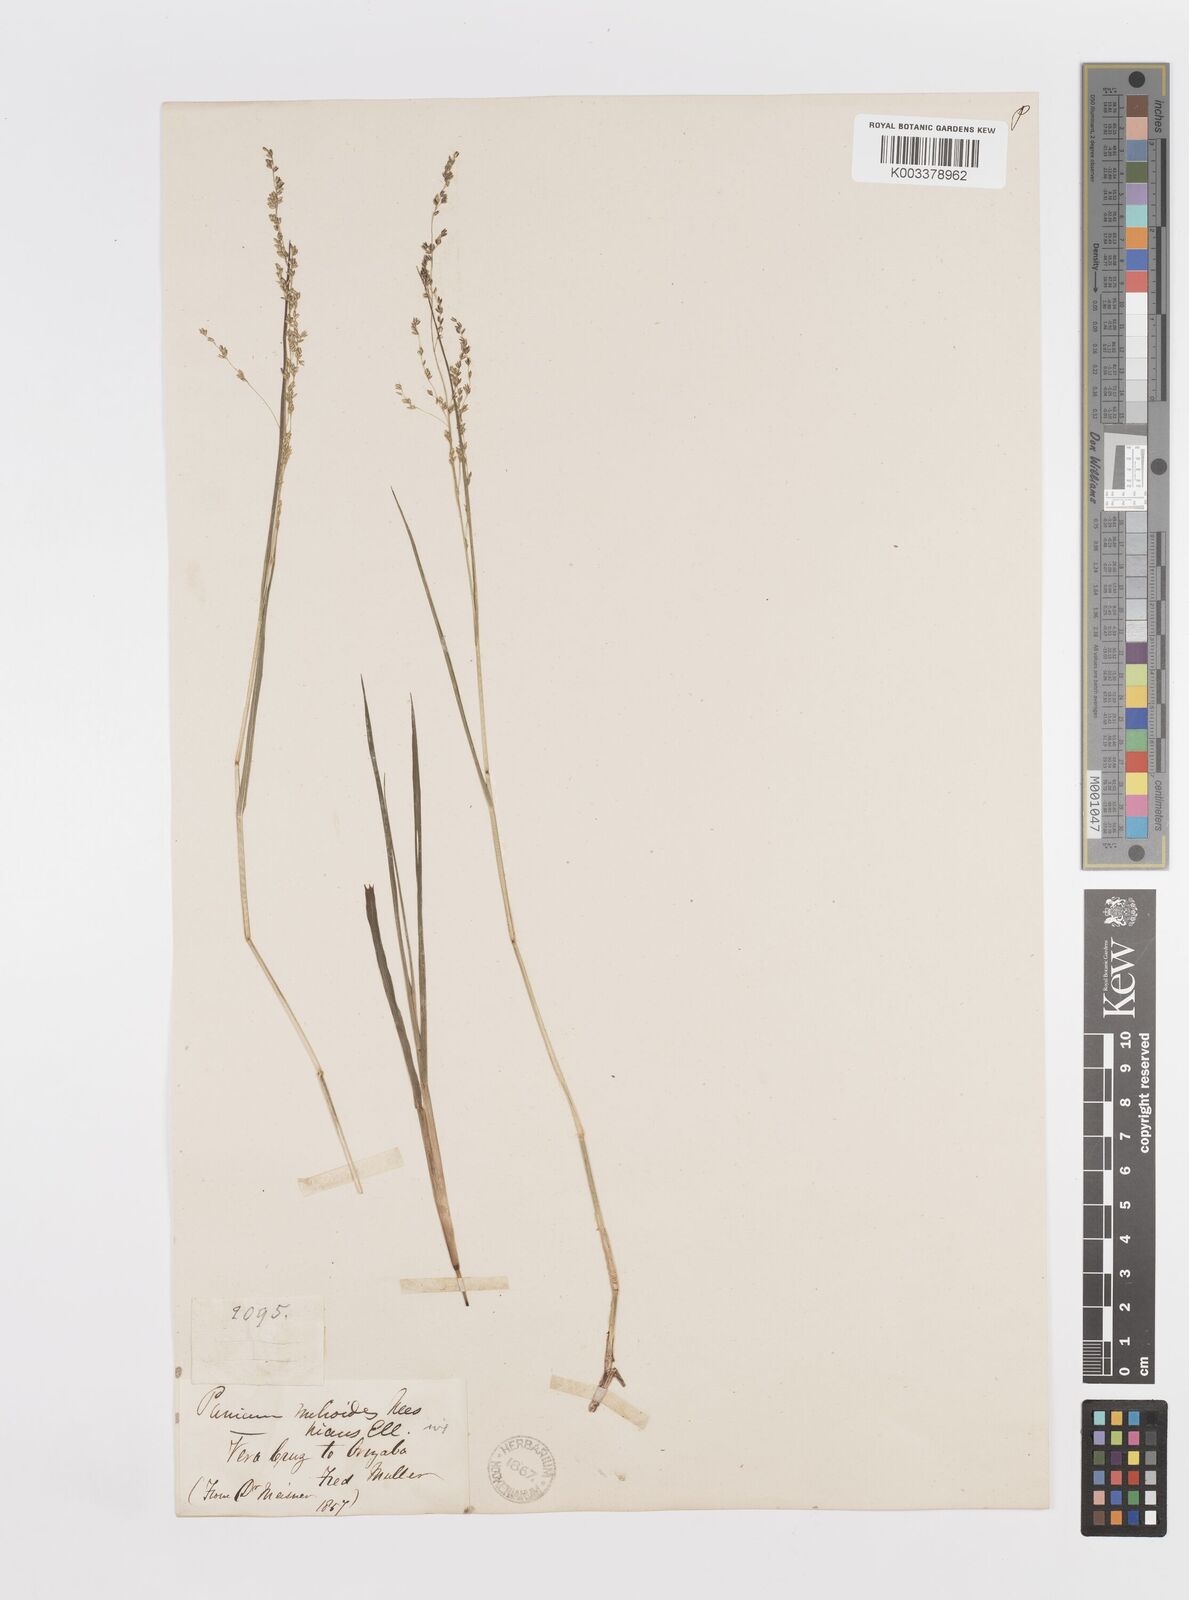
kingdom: Plantae
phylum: Tracheophyta
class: Liliopsida
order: Poales
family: Poaceae
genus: Steinchisma
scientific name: Steinchisma hians
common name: Gaping panic grass
